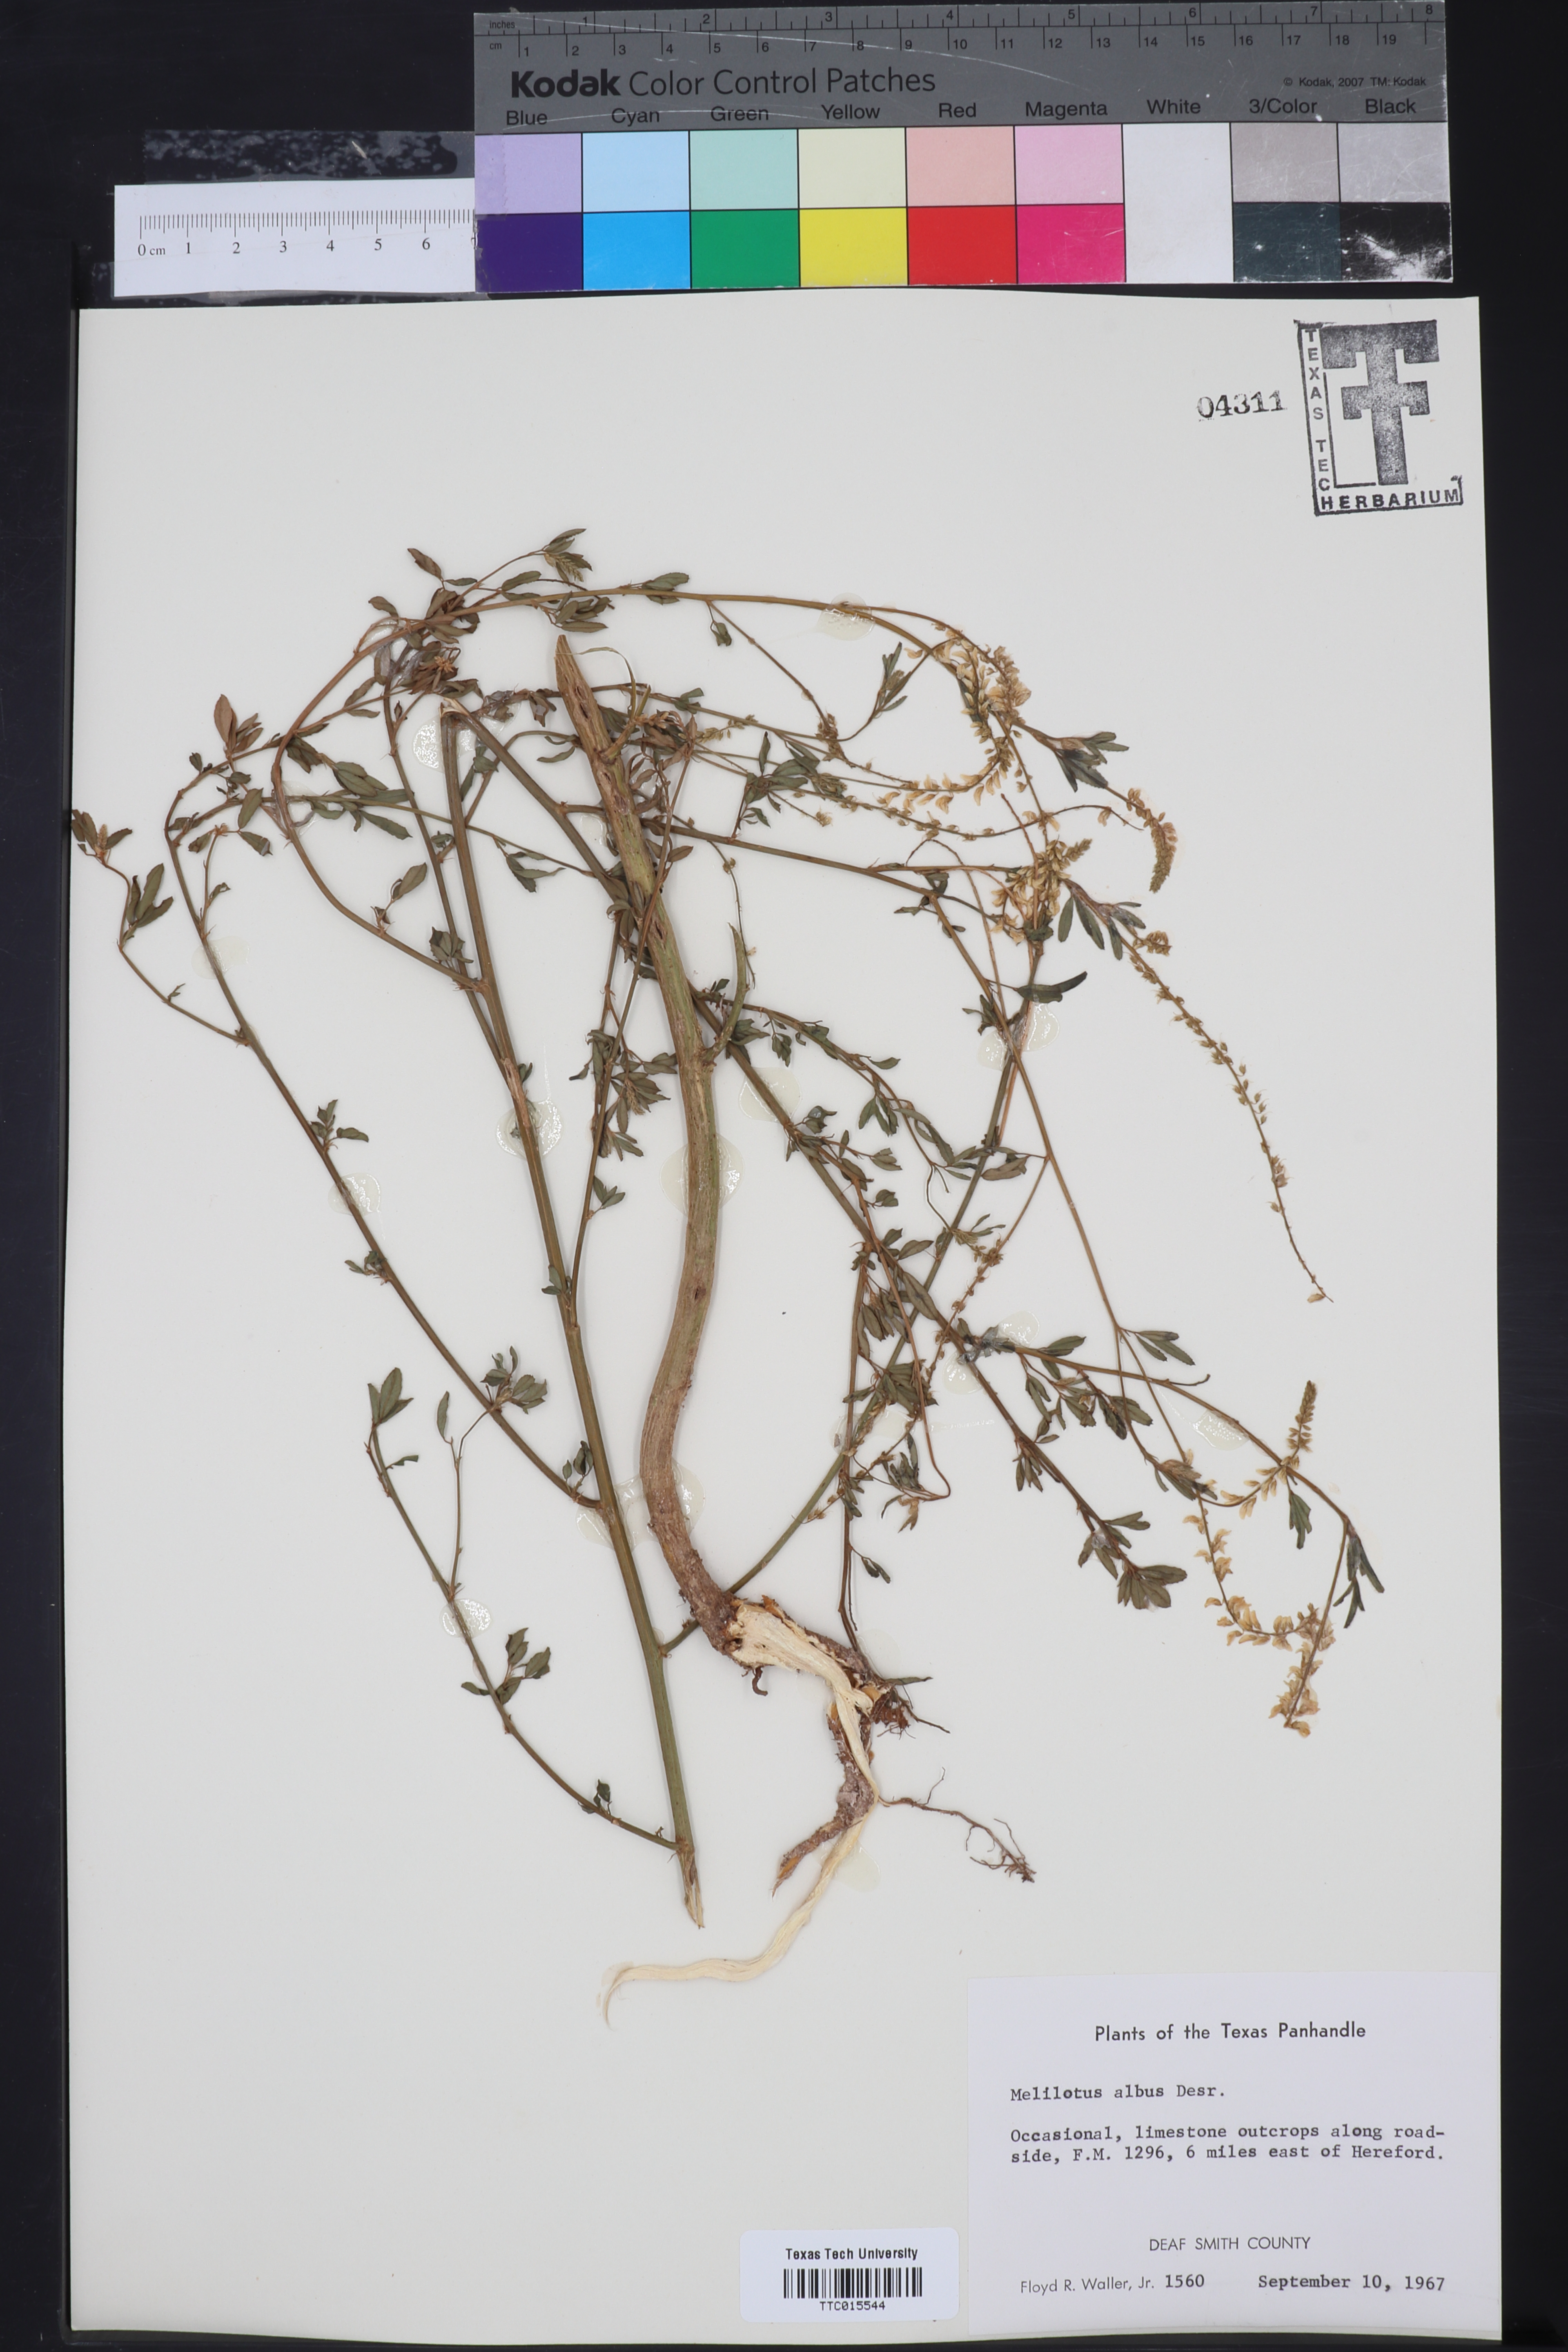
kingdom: Plantae
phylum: Tracheophyta
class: Magnoliopsida
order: Fabales
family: Fabaceae
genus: Melilotus
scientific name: Melilotus albus
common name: White melilot
